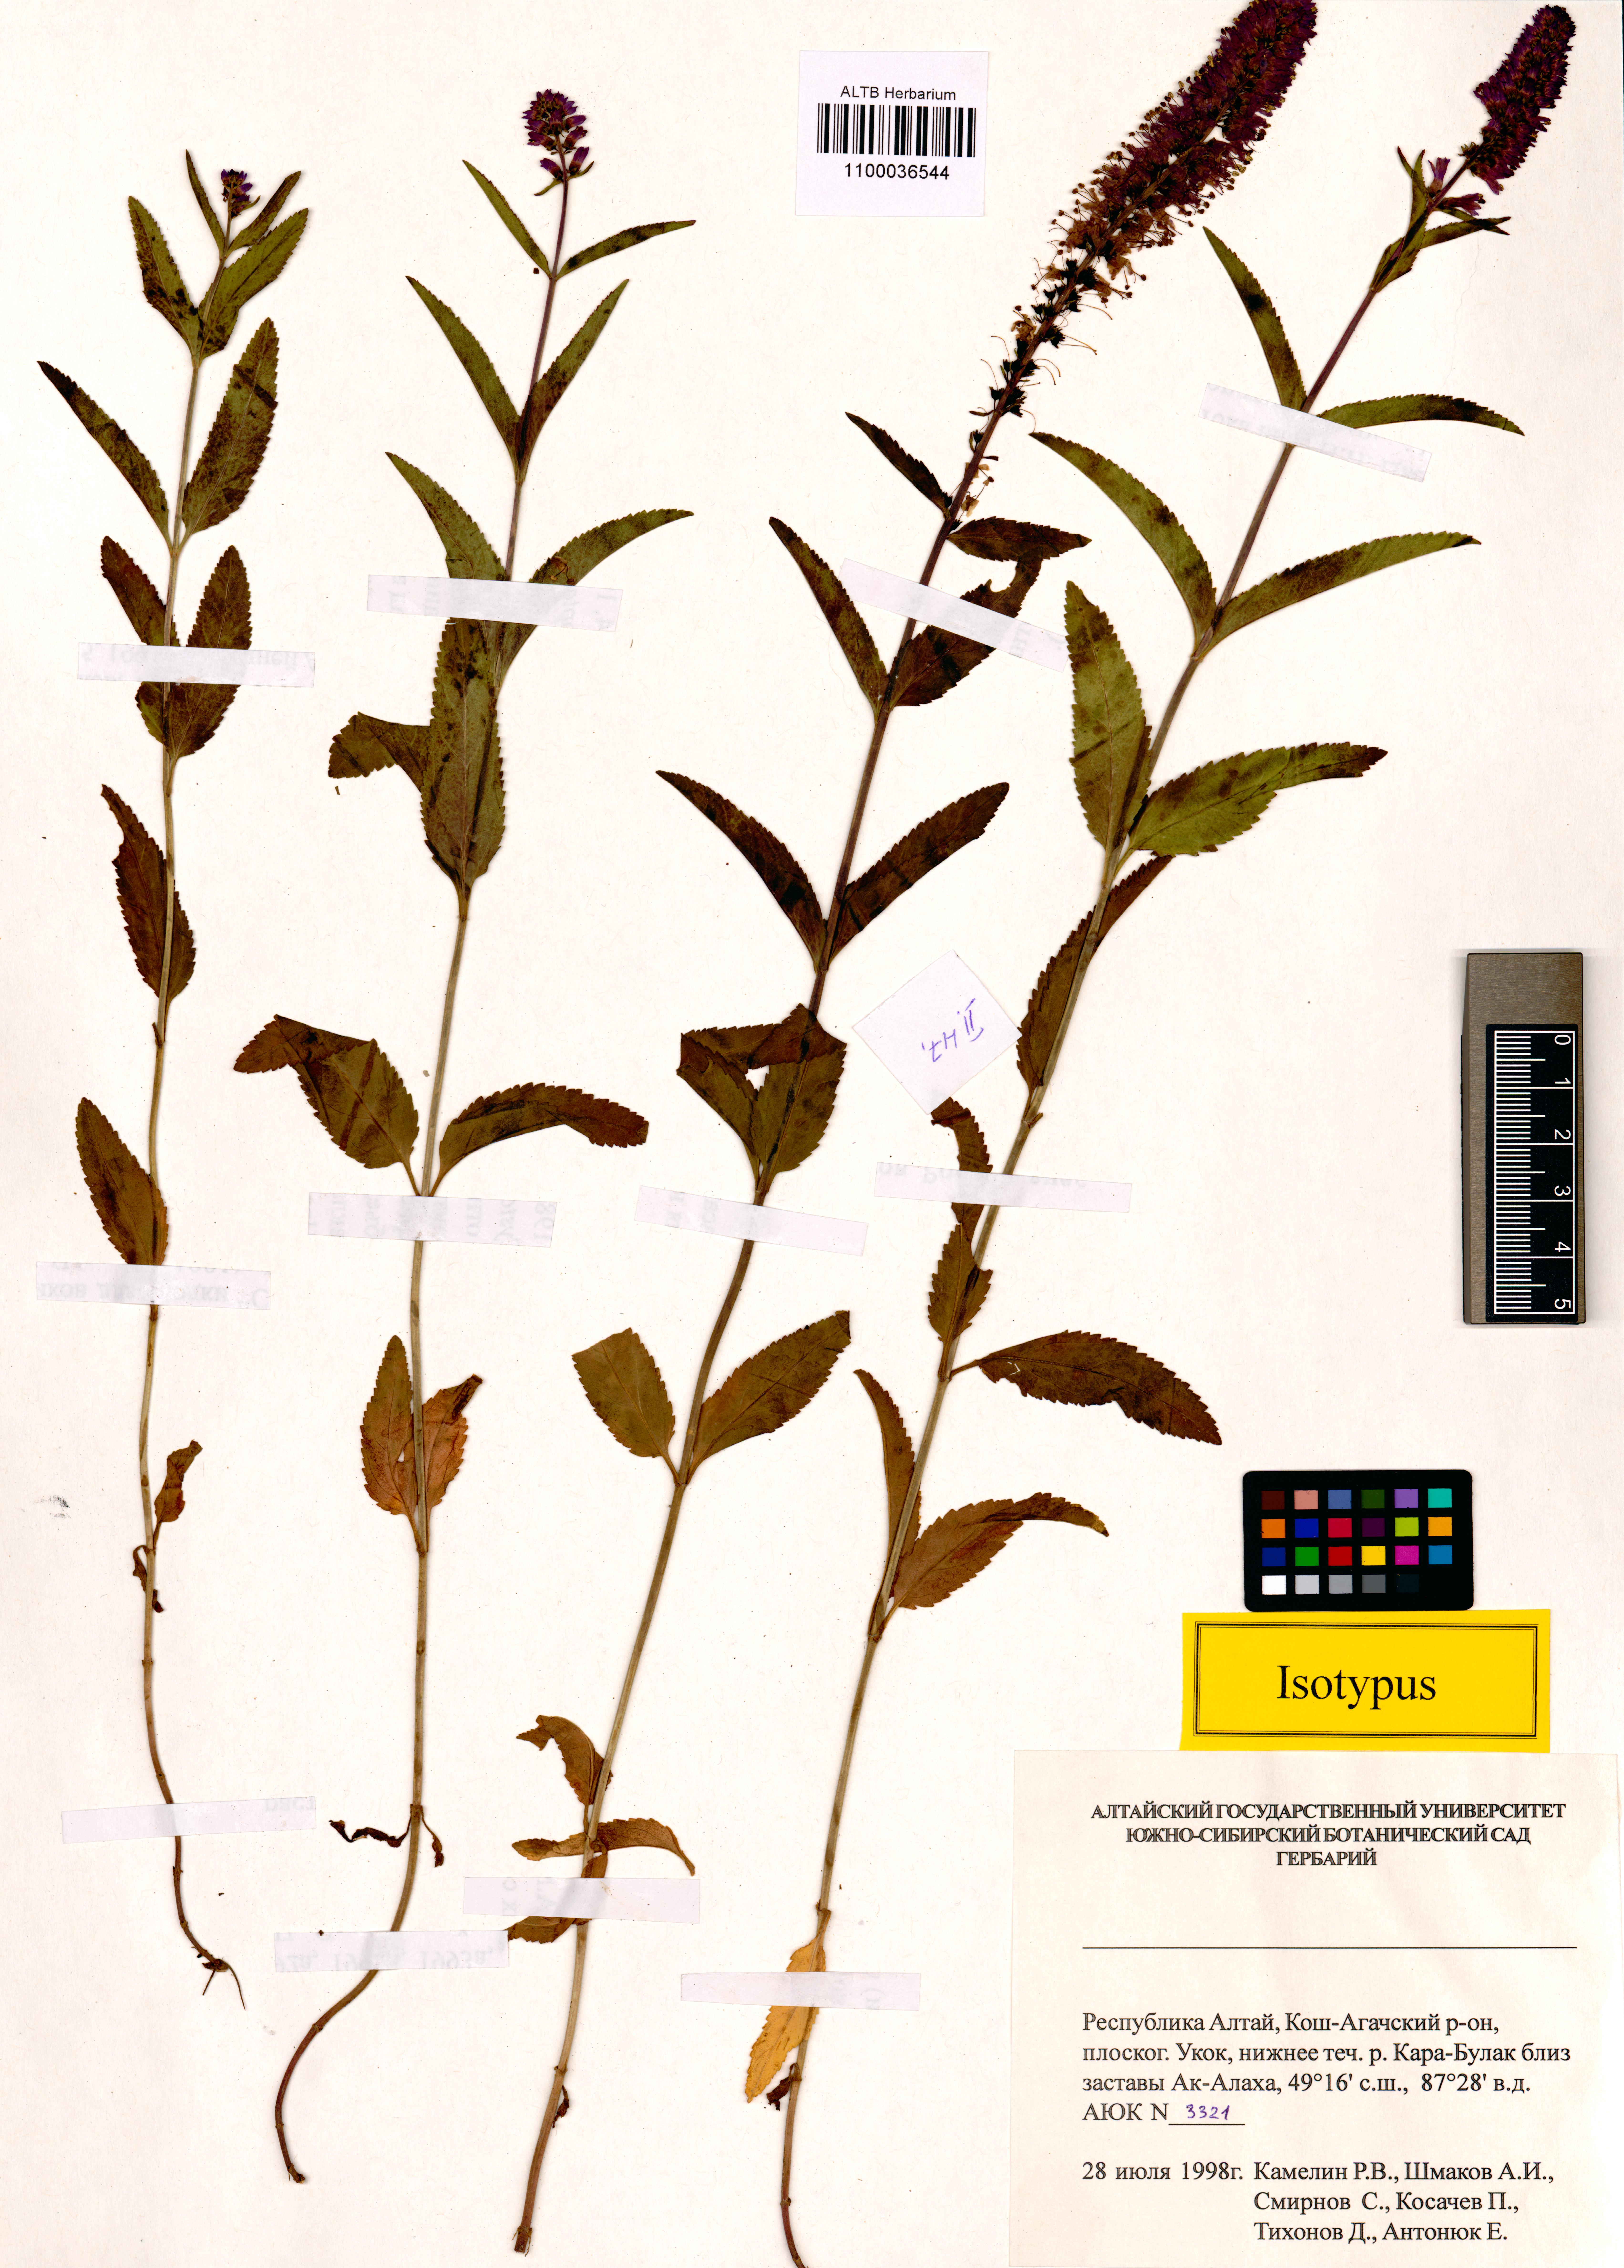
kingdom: Plantae
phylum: Tracheophyta
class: Magnoliopsida
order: Lamiales
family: Plantaginaceae
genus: Veronica
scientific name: Veronica schmakovii
